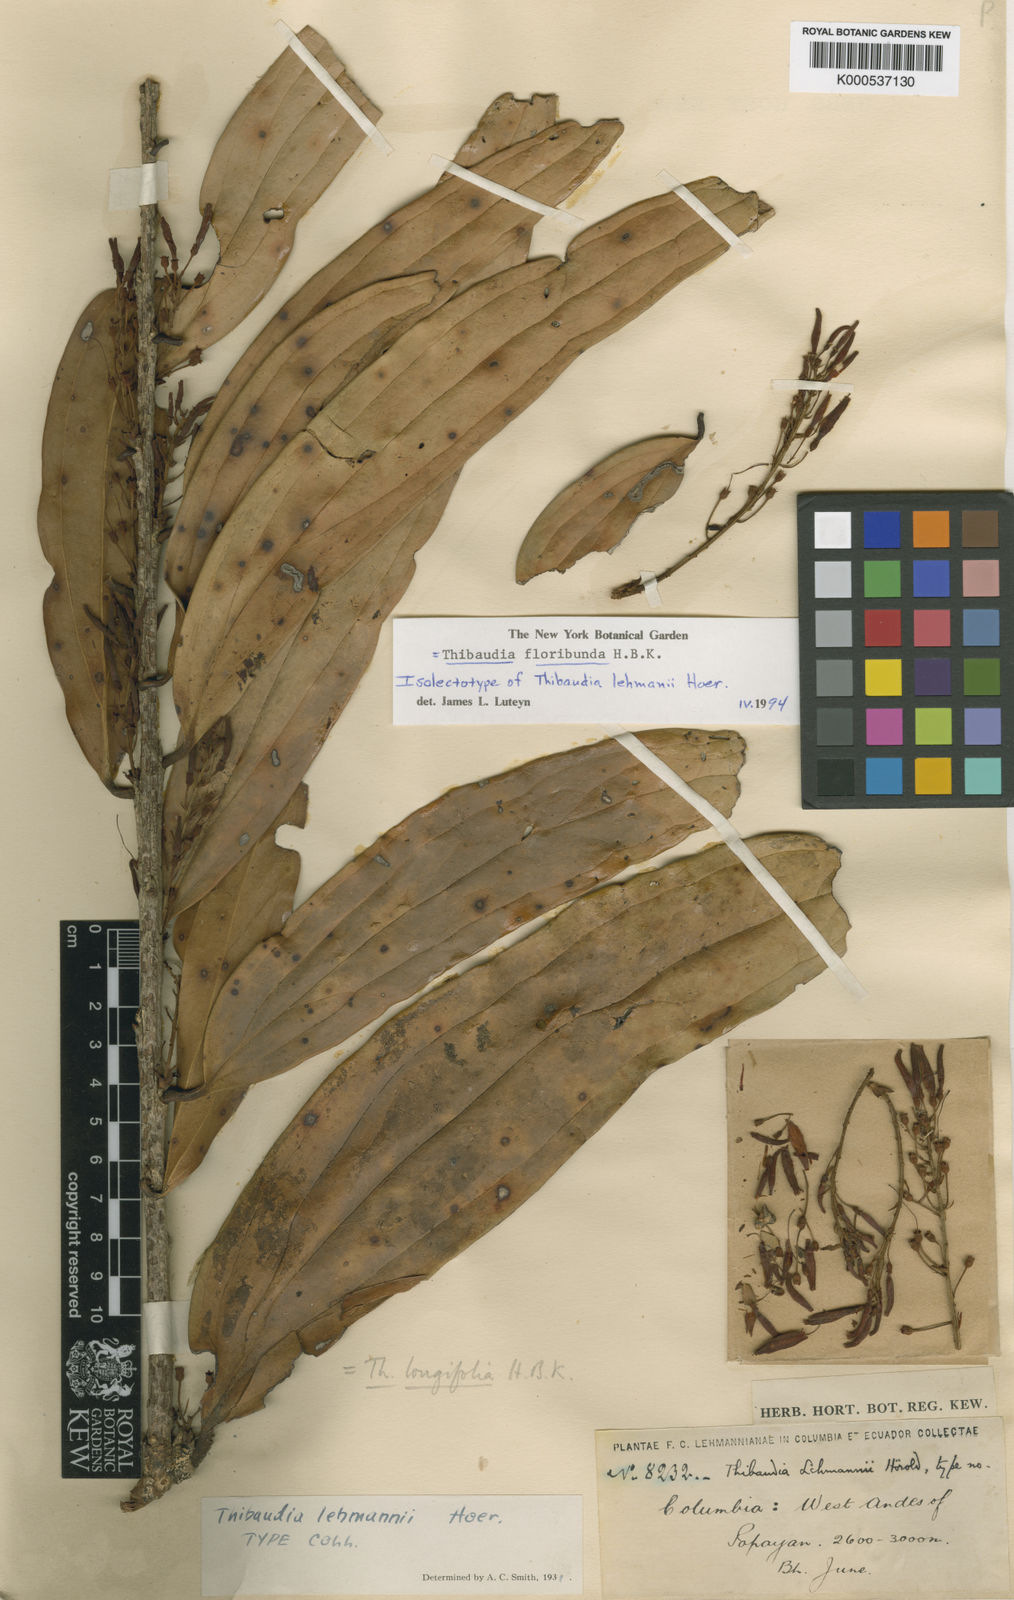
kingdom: Plantae
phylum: Tracheophyta
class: Magnoliopsida
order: Ericales
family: Ericaceae
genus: Thibaudia
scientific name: Thibaudia floribunda
